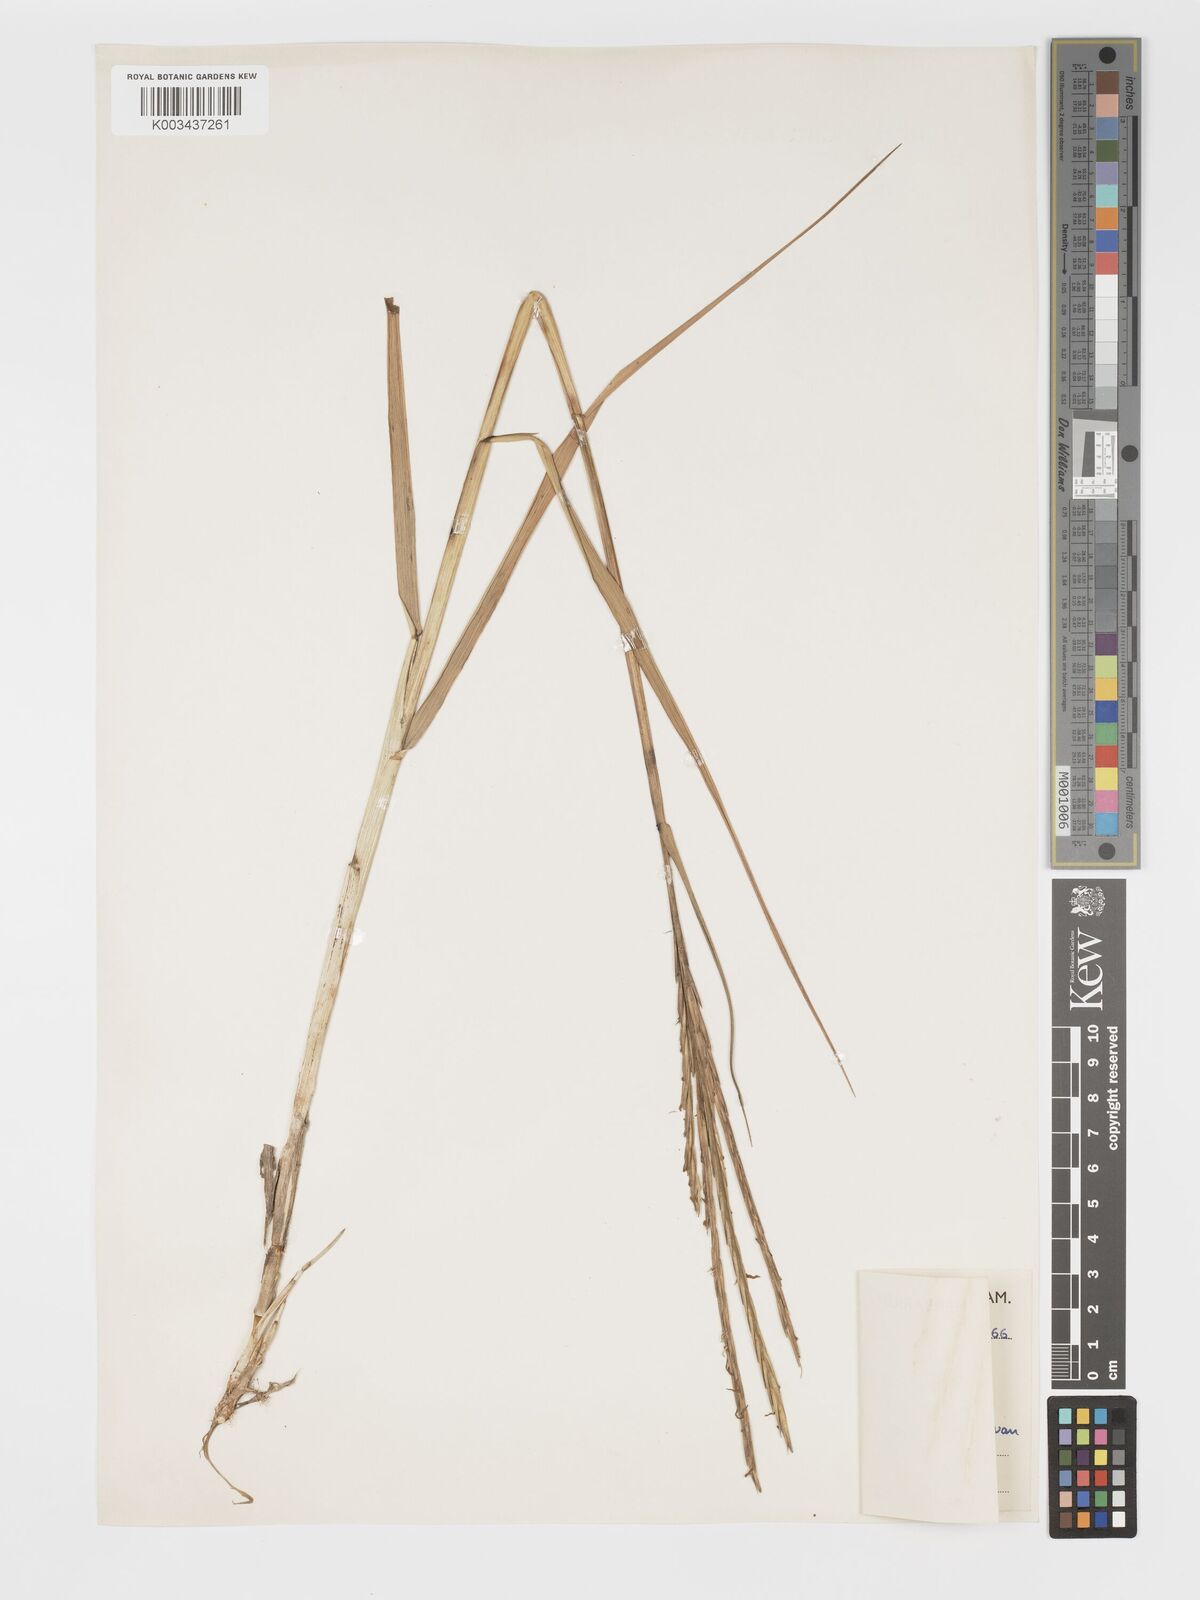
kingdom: Plantae
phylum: Tracheophyta
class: Liliopsida
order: Poales
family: Poaceae
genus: Sporobolus
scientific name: Sporobolus townsendii
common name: Townsend's cordgrass
